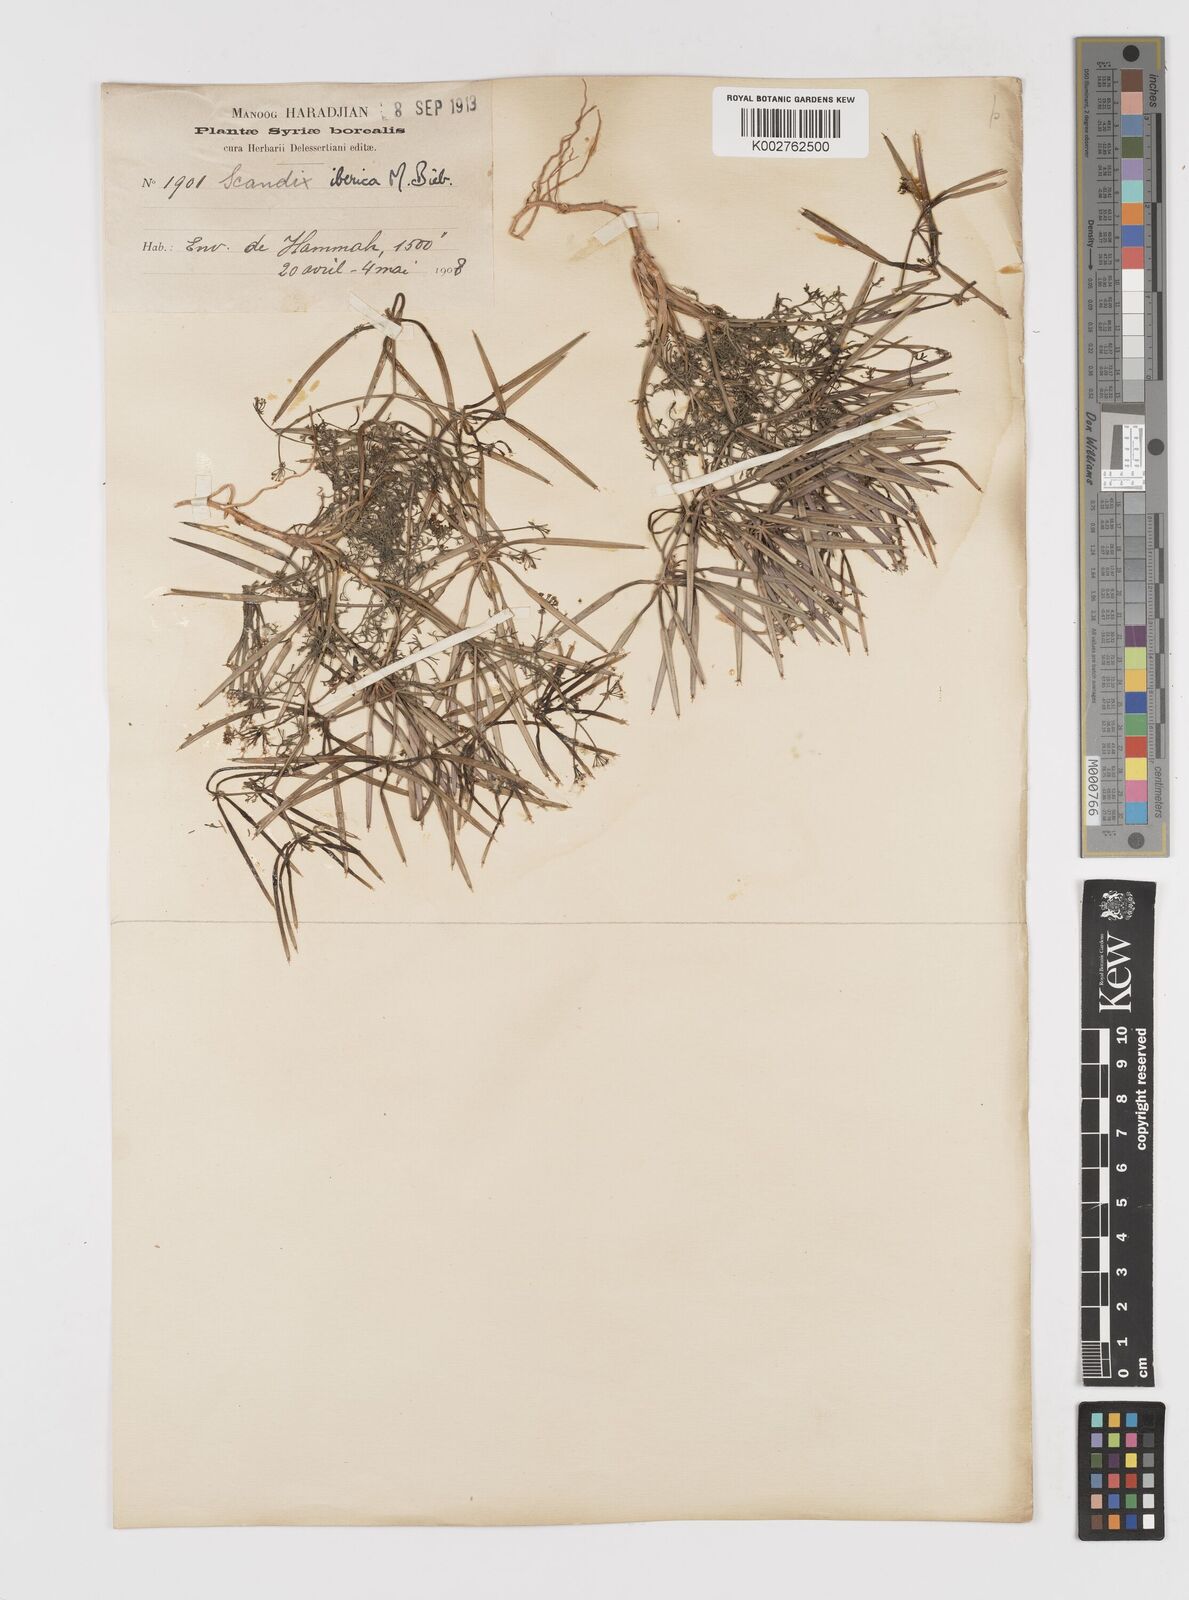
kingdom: Plantae
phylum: Tracheophyta
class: Magnoliopsida
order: Apiales
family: Apiaceae
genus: Scandix
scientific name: Scandix iberica
